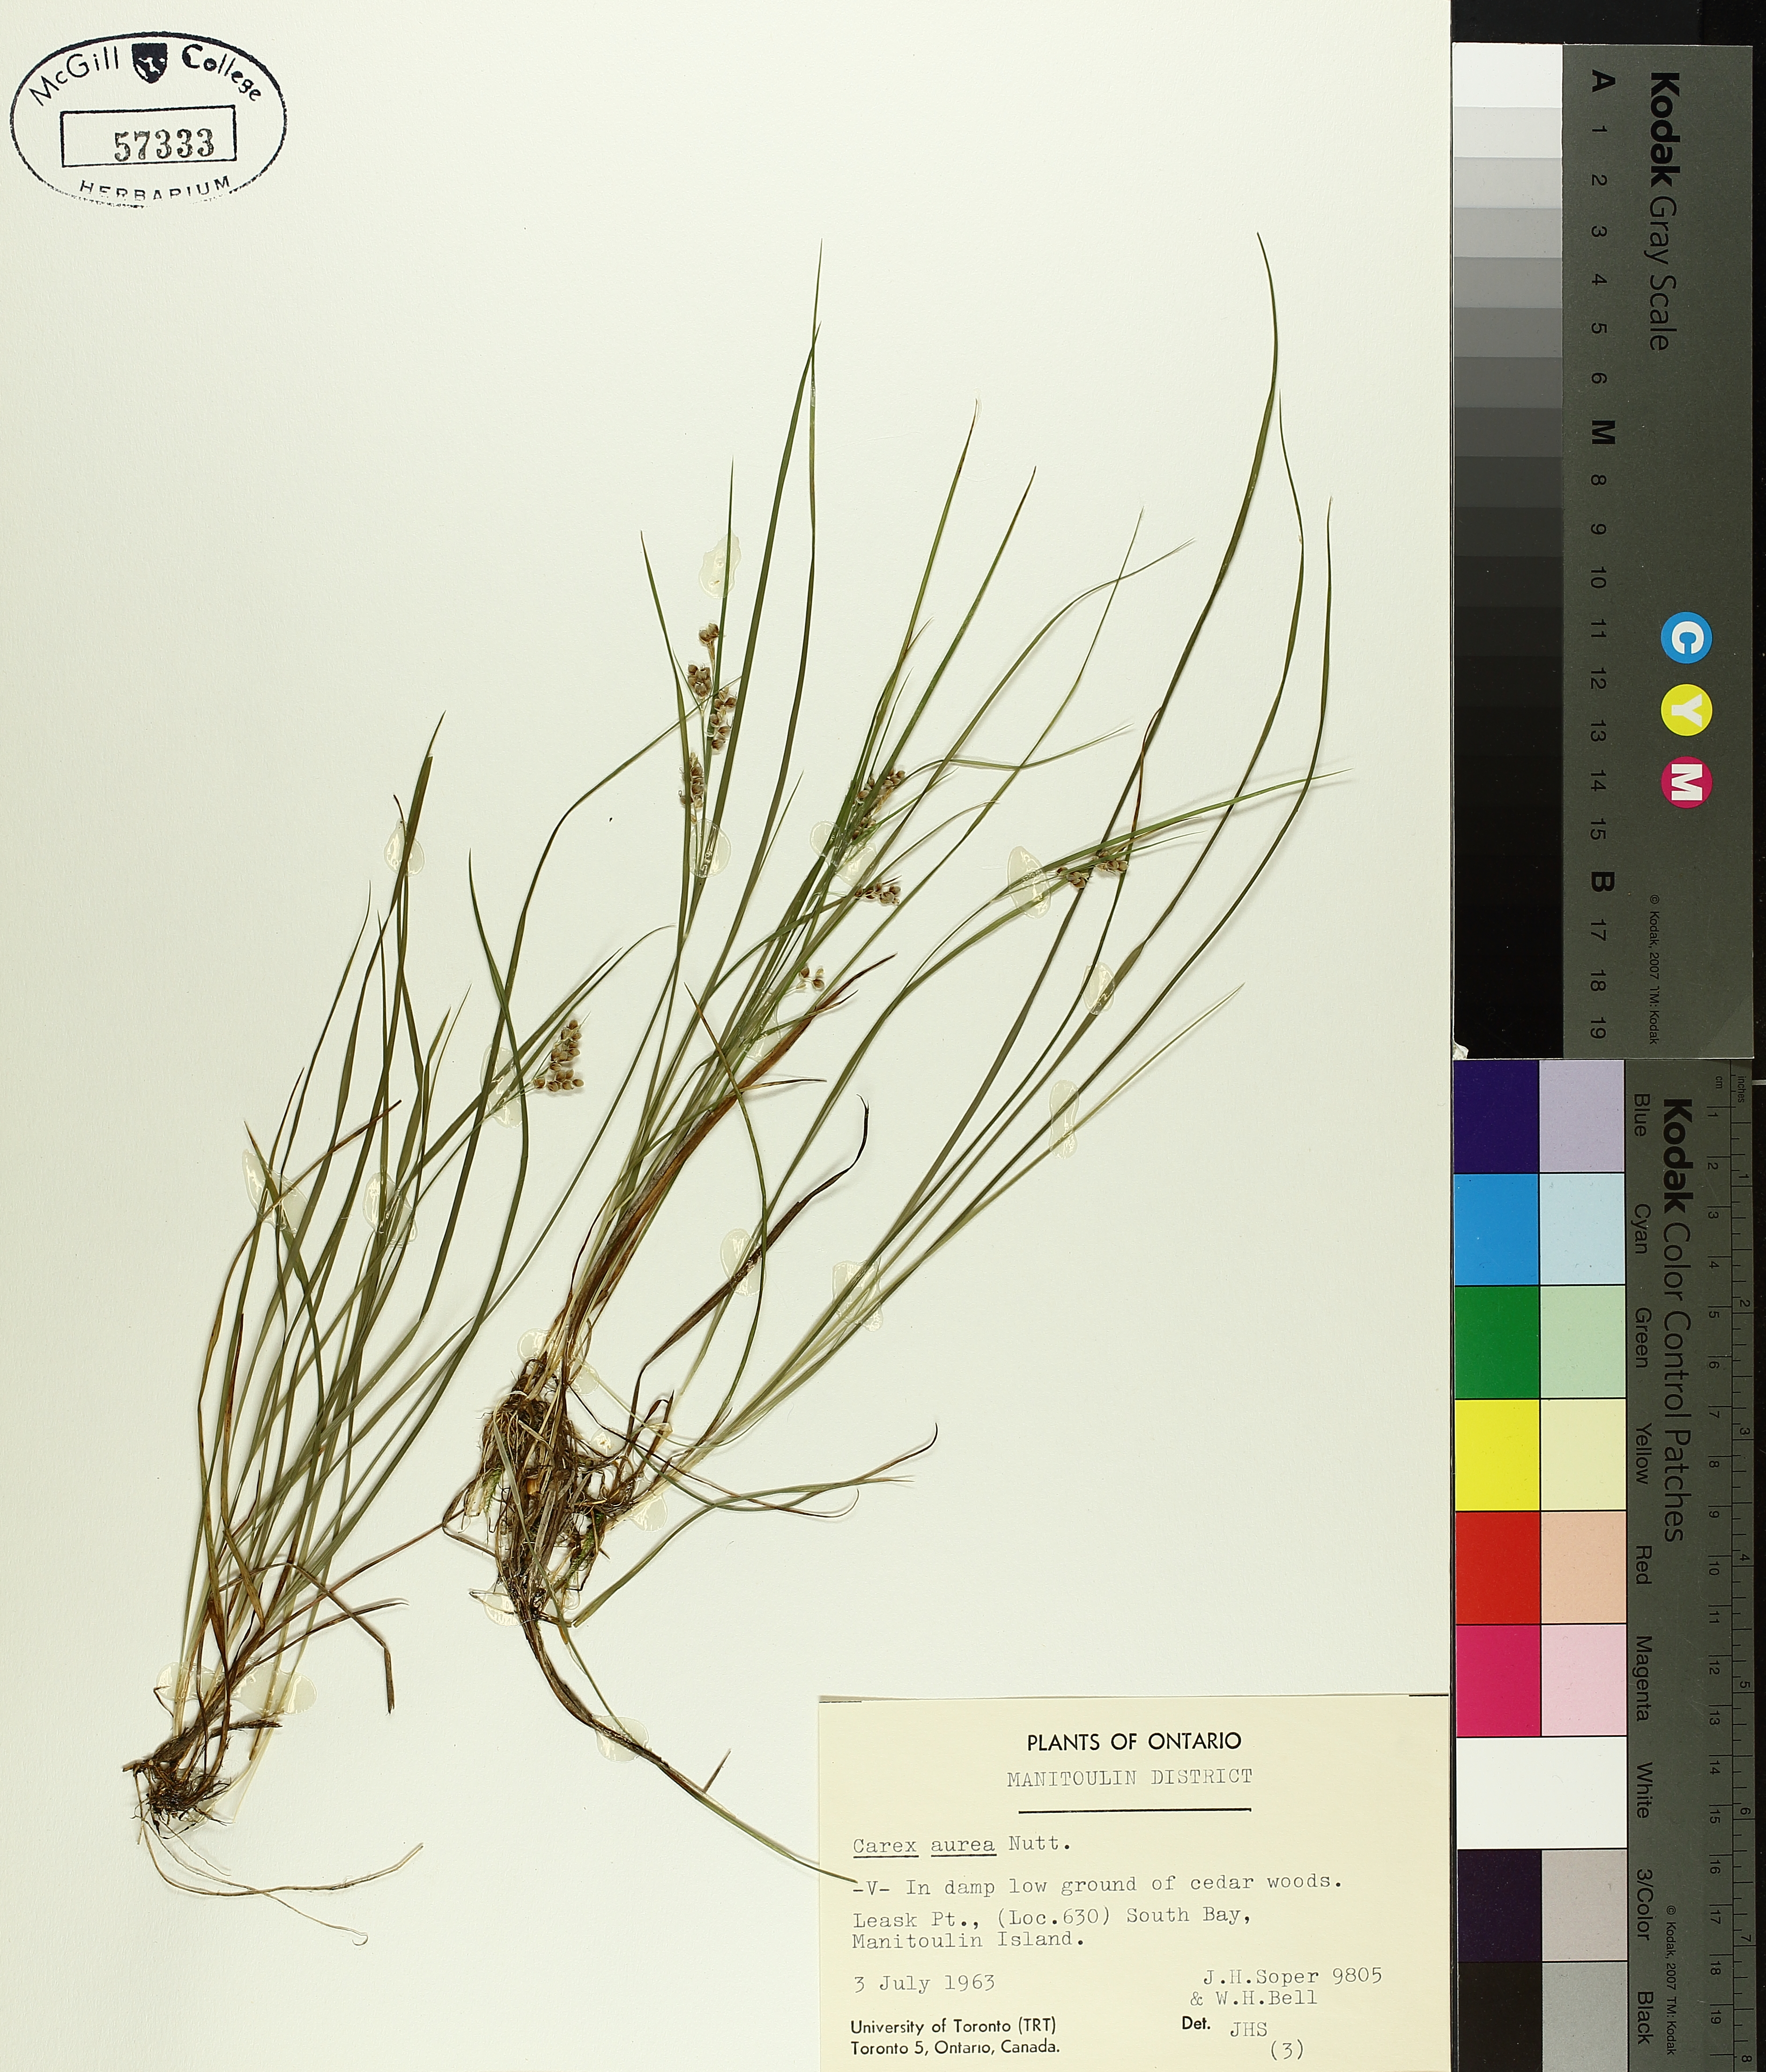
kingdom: Plantae
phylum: Tracheophyta
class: Liliopsida
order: Poales
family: Cyperaceae
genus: Carex
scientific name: Carex aurea
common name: Golden sedge
